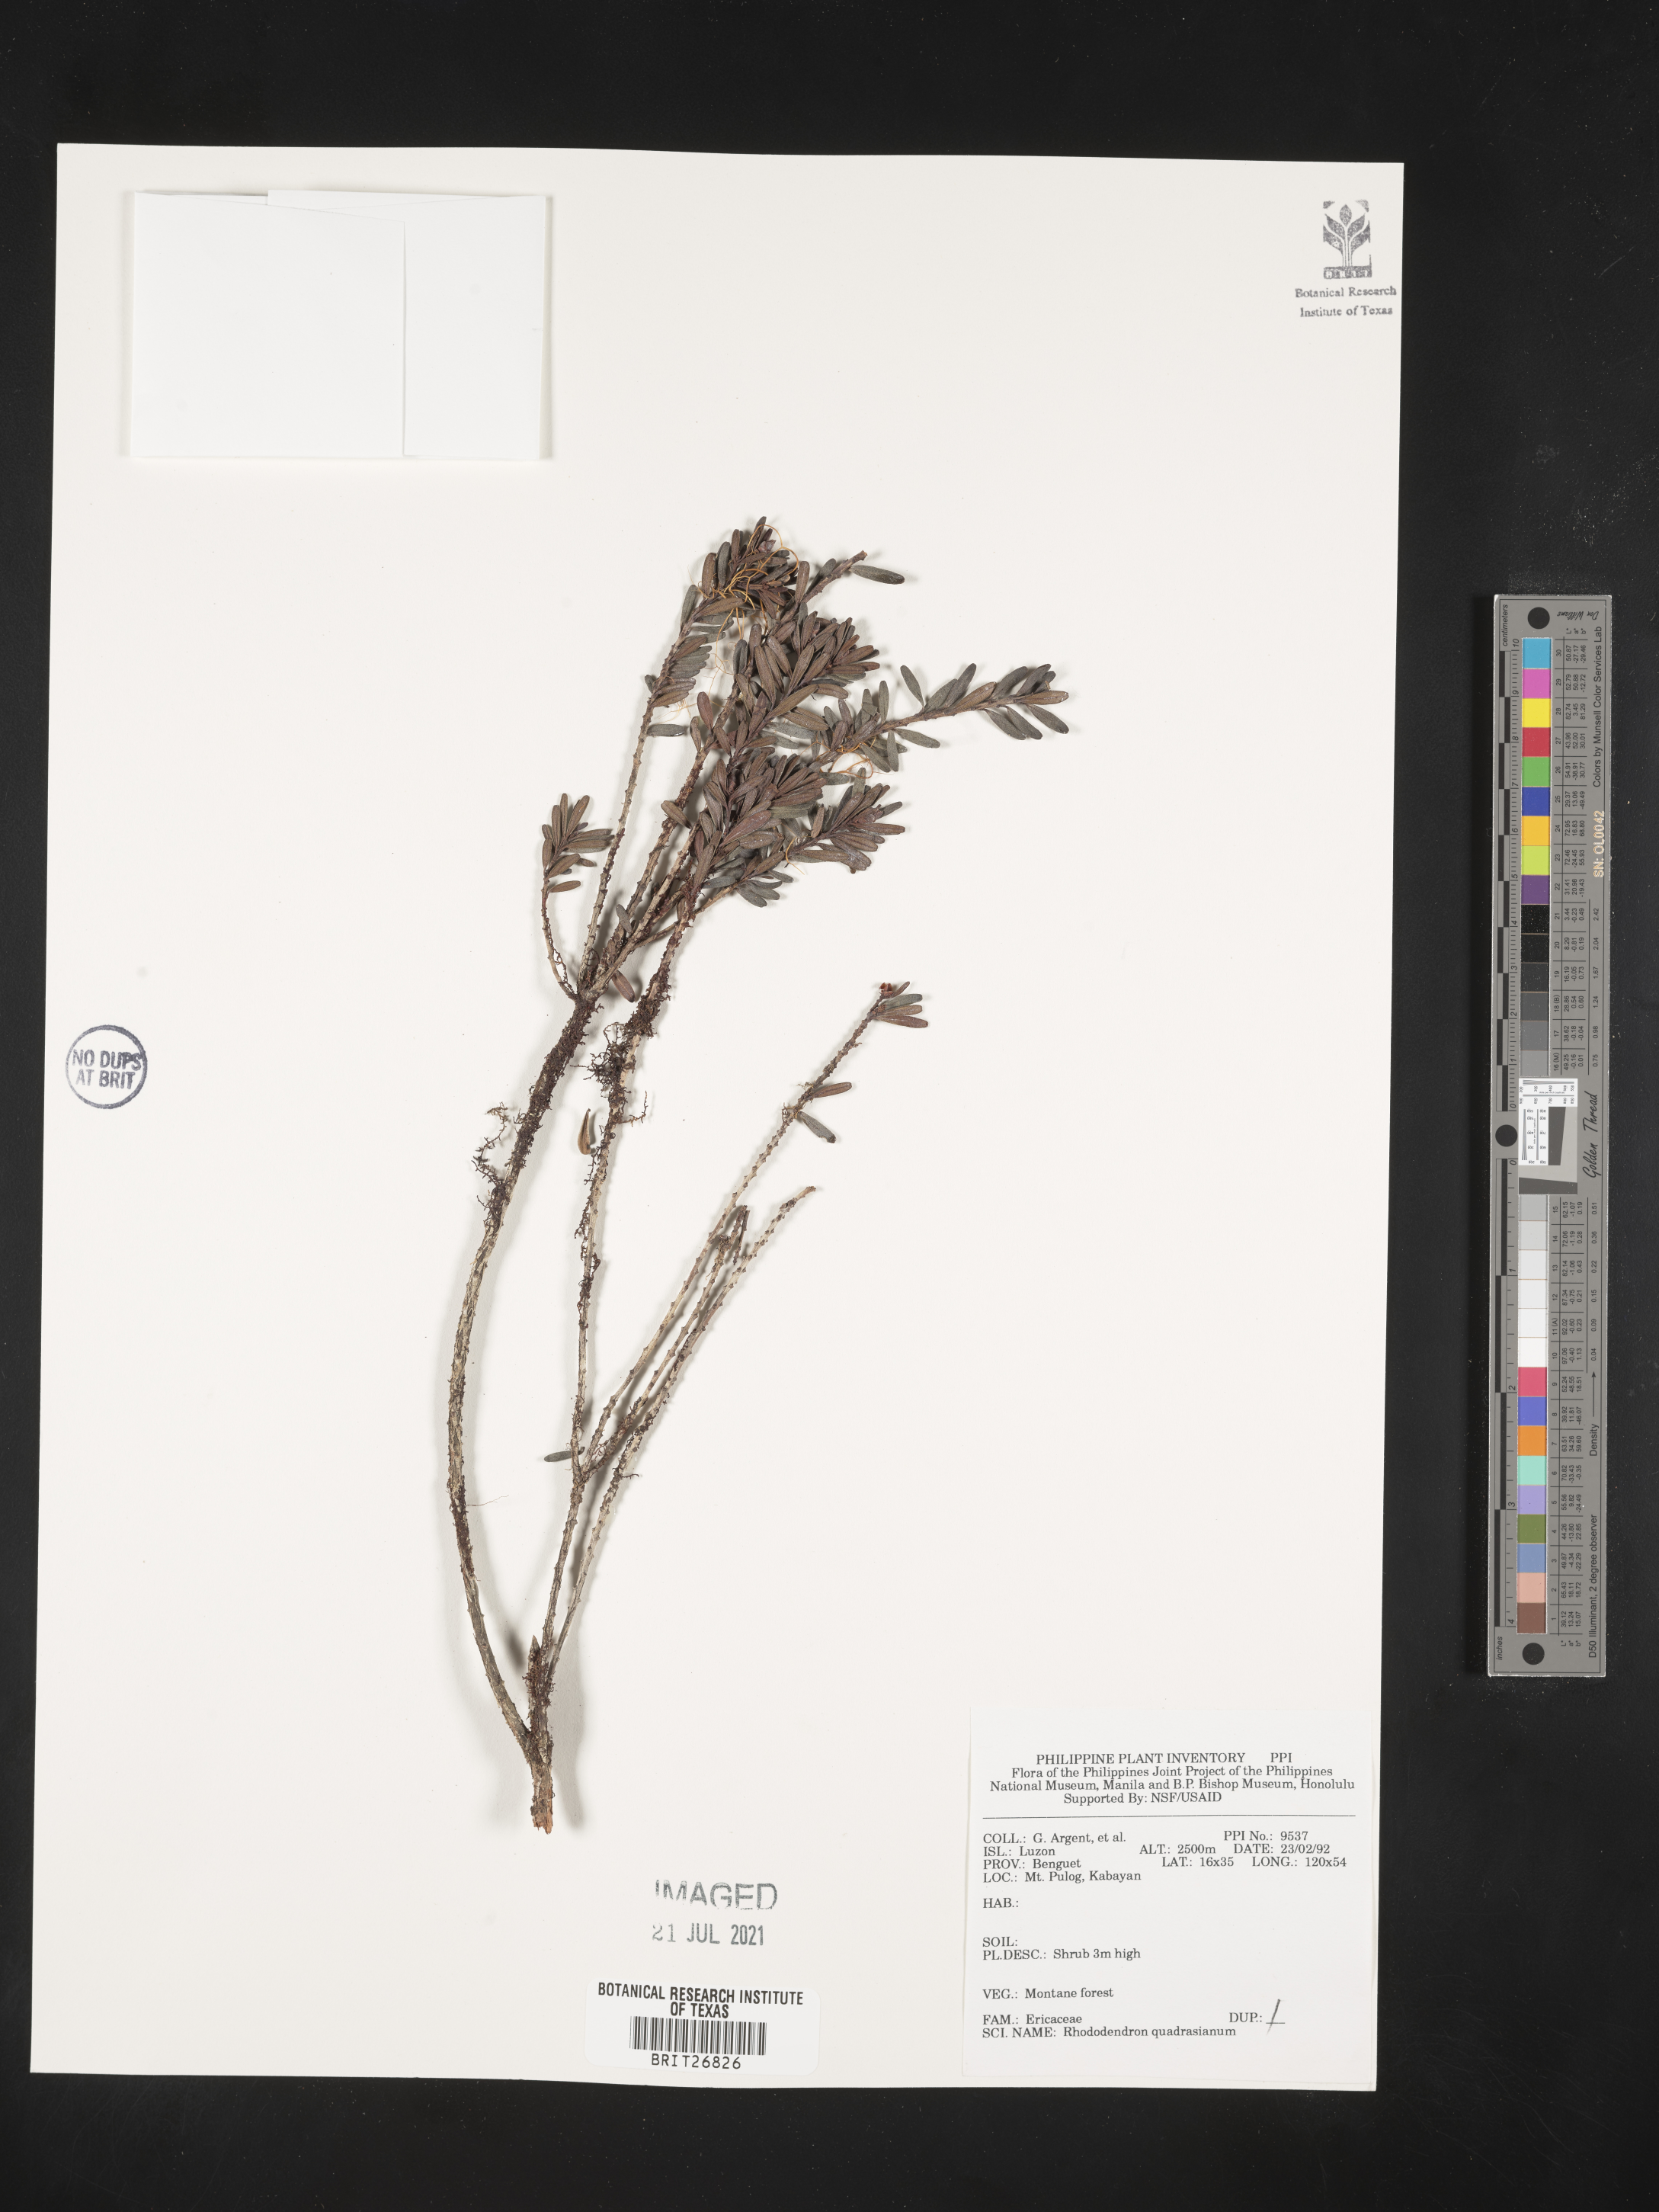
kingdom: Plantae
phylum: Tracheophyta
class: Magnoliopsida
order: Ericales
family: Ericaceae
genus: Rhododendron
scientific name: Rhododendron quadrasianum
